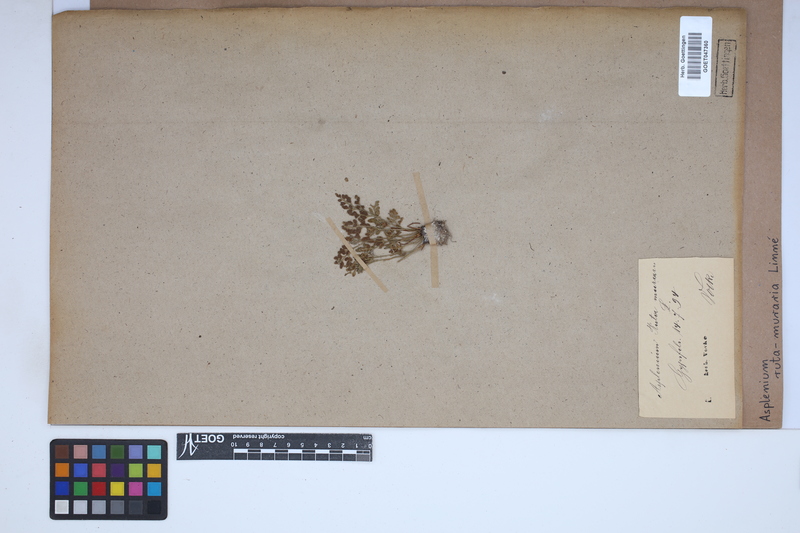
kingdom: Plantae
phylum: Tracheophyta
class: Polypodiopsida
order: Polypodiales
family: Aspleniaceae
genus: Asplenium
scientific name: Asplenium ruta-muraria
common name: Wall-rue
